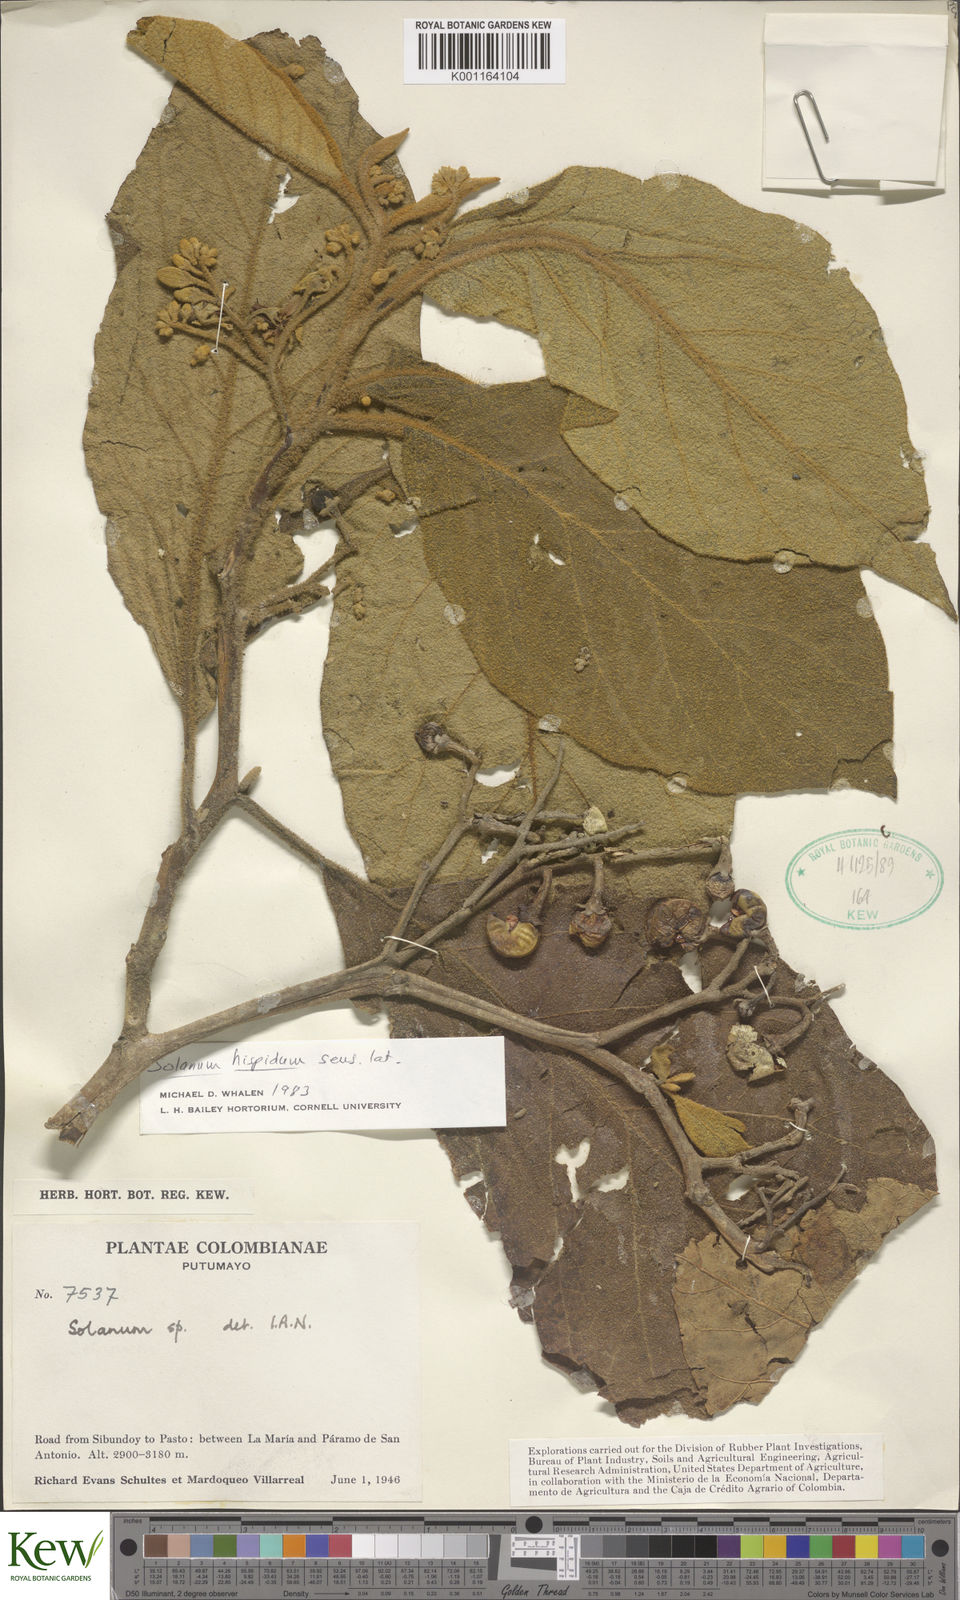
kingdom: Plantae
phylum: Tracheophyta
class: Magnoliopsida
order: Solanales
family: Solanaceae
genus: Solanum
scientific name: Solanum hirtum
